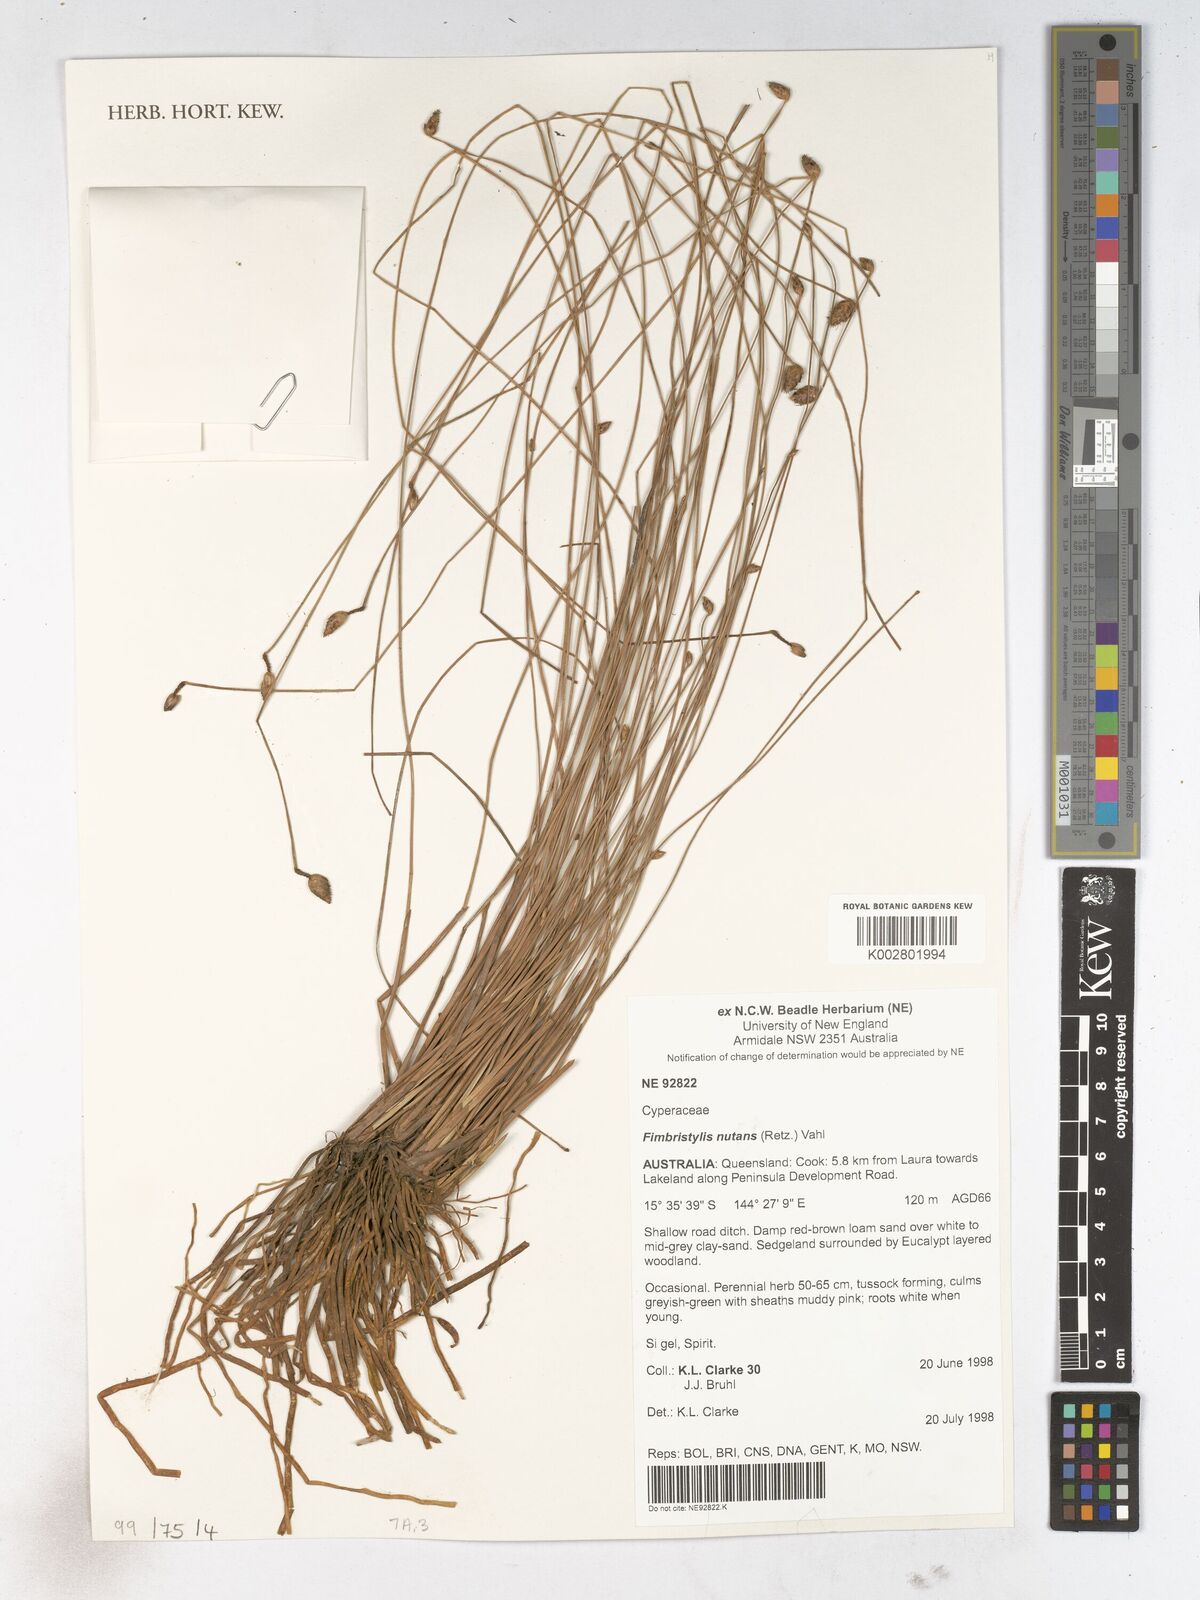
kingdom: Plantae
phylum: Tracheophyta
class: Liliopsida
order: Poales
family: Cyperaceae
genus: Fimbristylis
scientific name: Fimbristylis nutans
